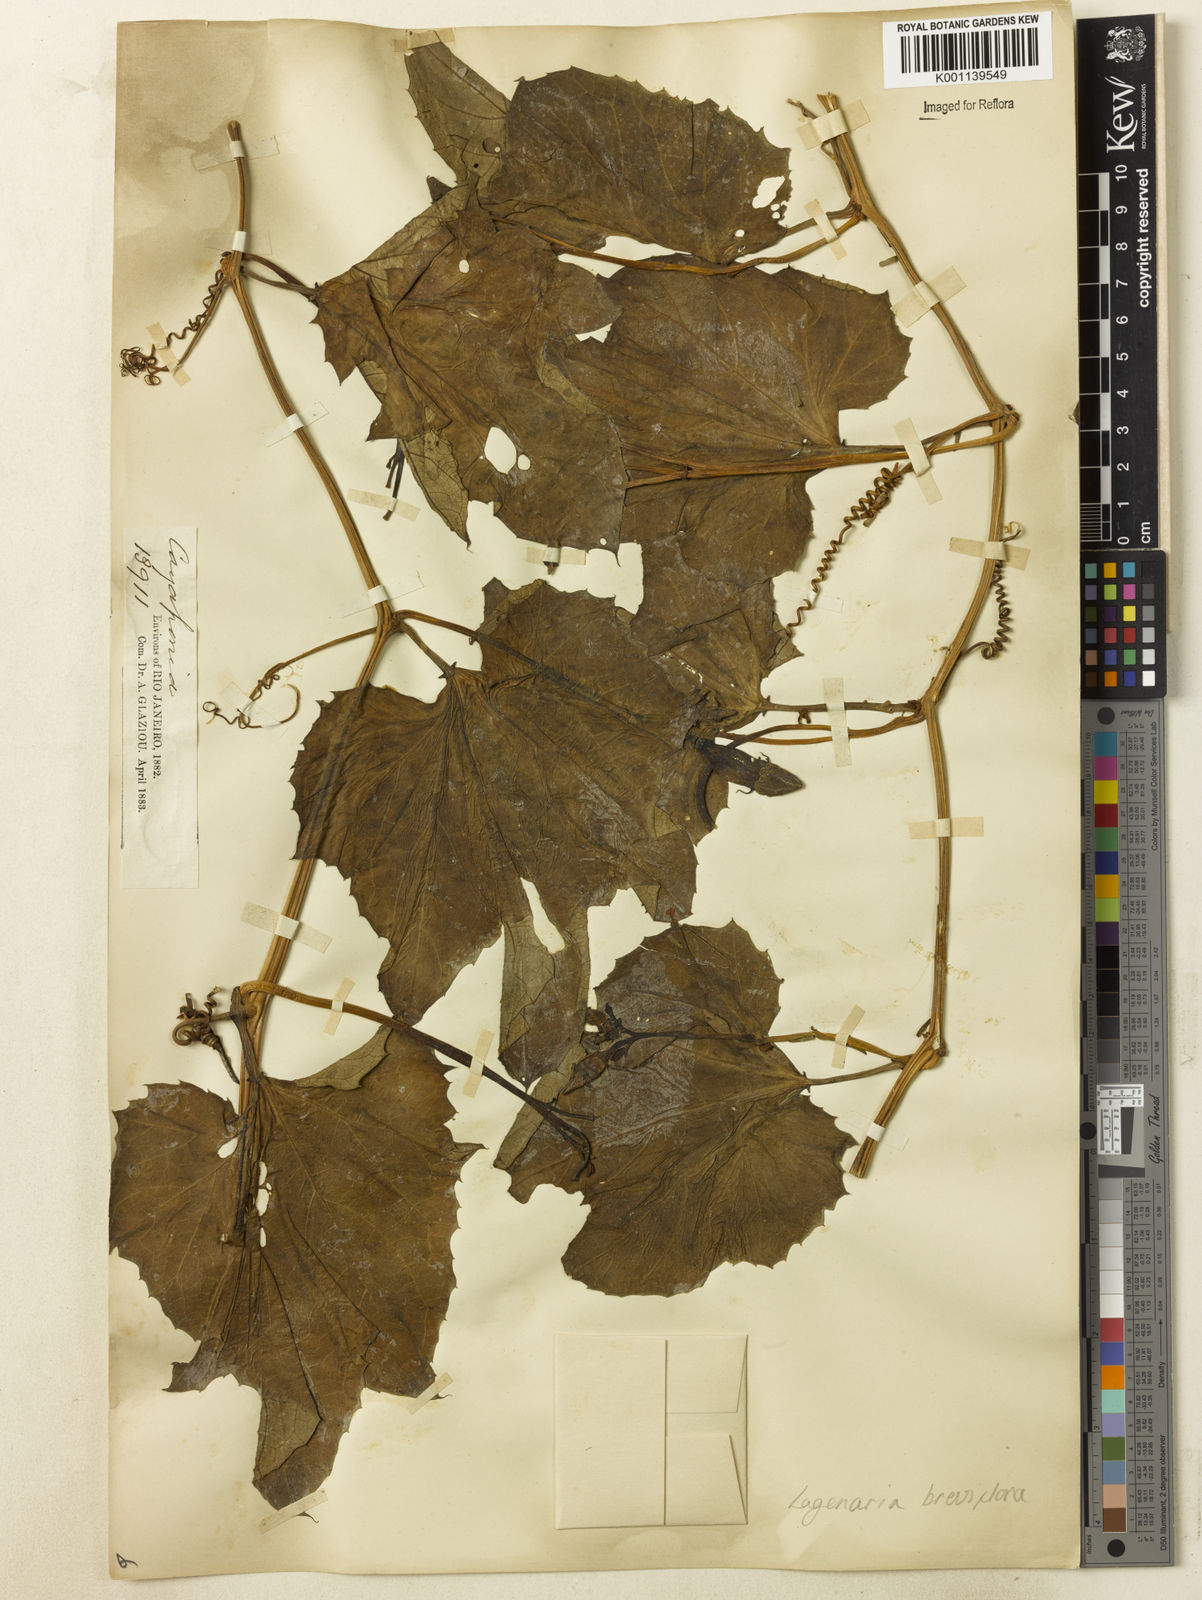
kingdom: Plantae
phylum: Tracheophyta
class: Magnoliopsida
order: Cucurbitales
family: Cucurbitaceae
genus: Lagenaria
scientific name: Lagenaria breviflora
